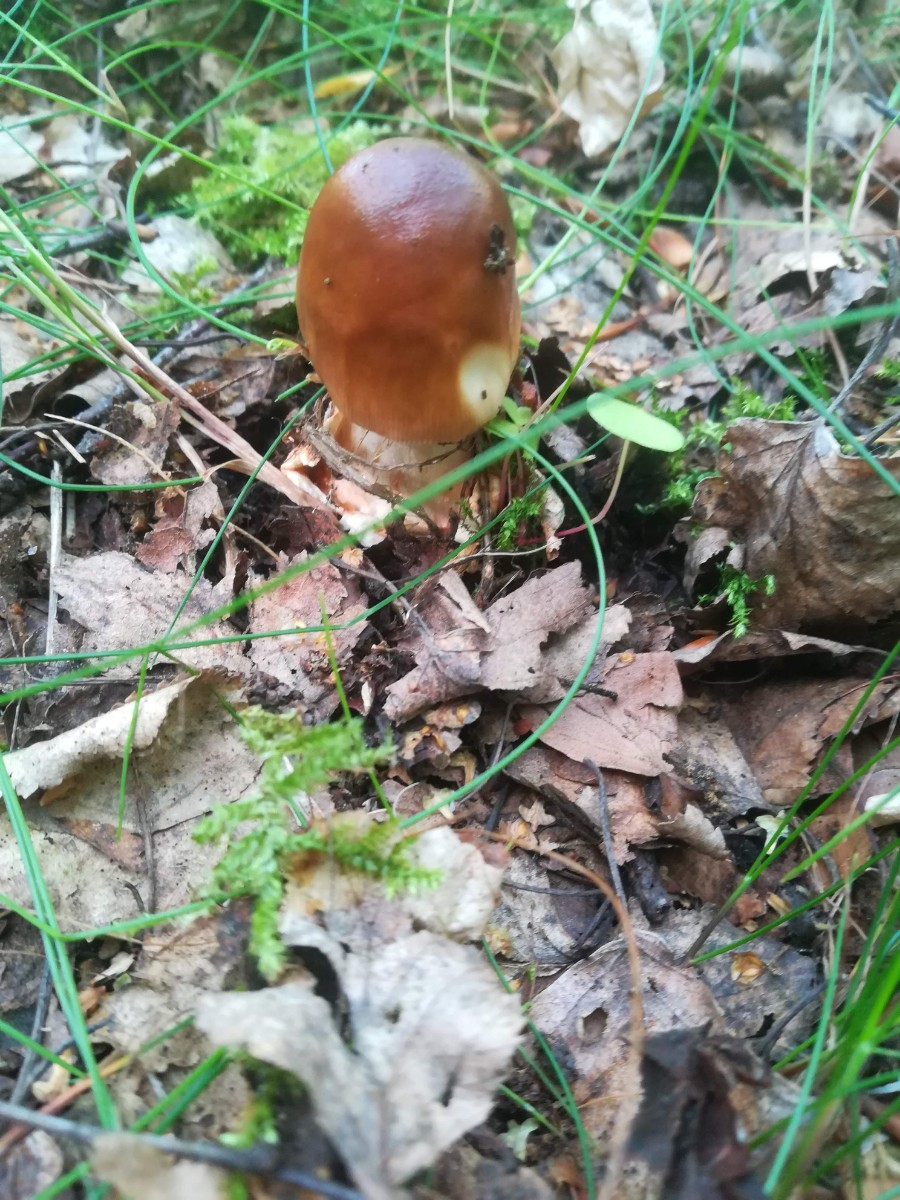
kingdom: Fungi
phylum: Basidiomycota
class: Agaricomycetes
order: Agaricales
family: Amanitaceae
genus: Amanita
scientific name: Amanita fulva
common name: brun kam-fluesvamp
